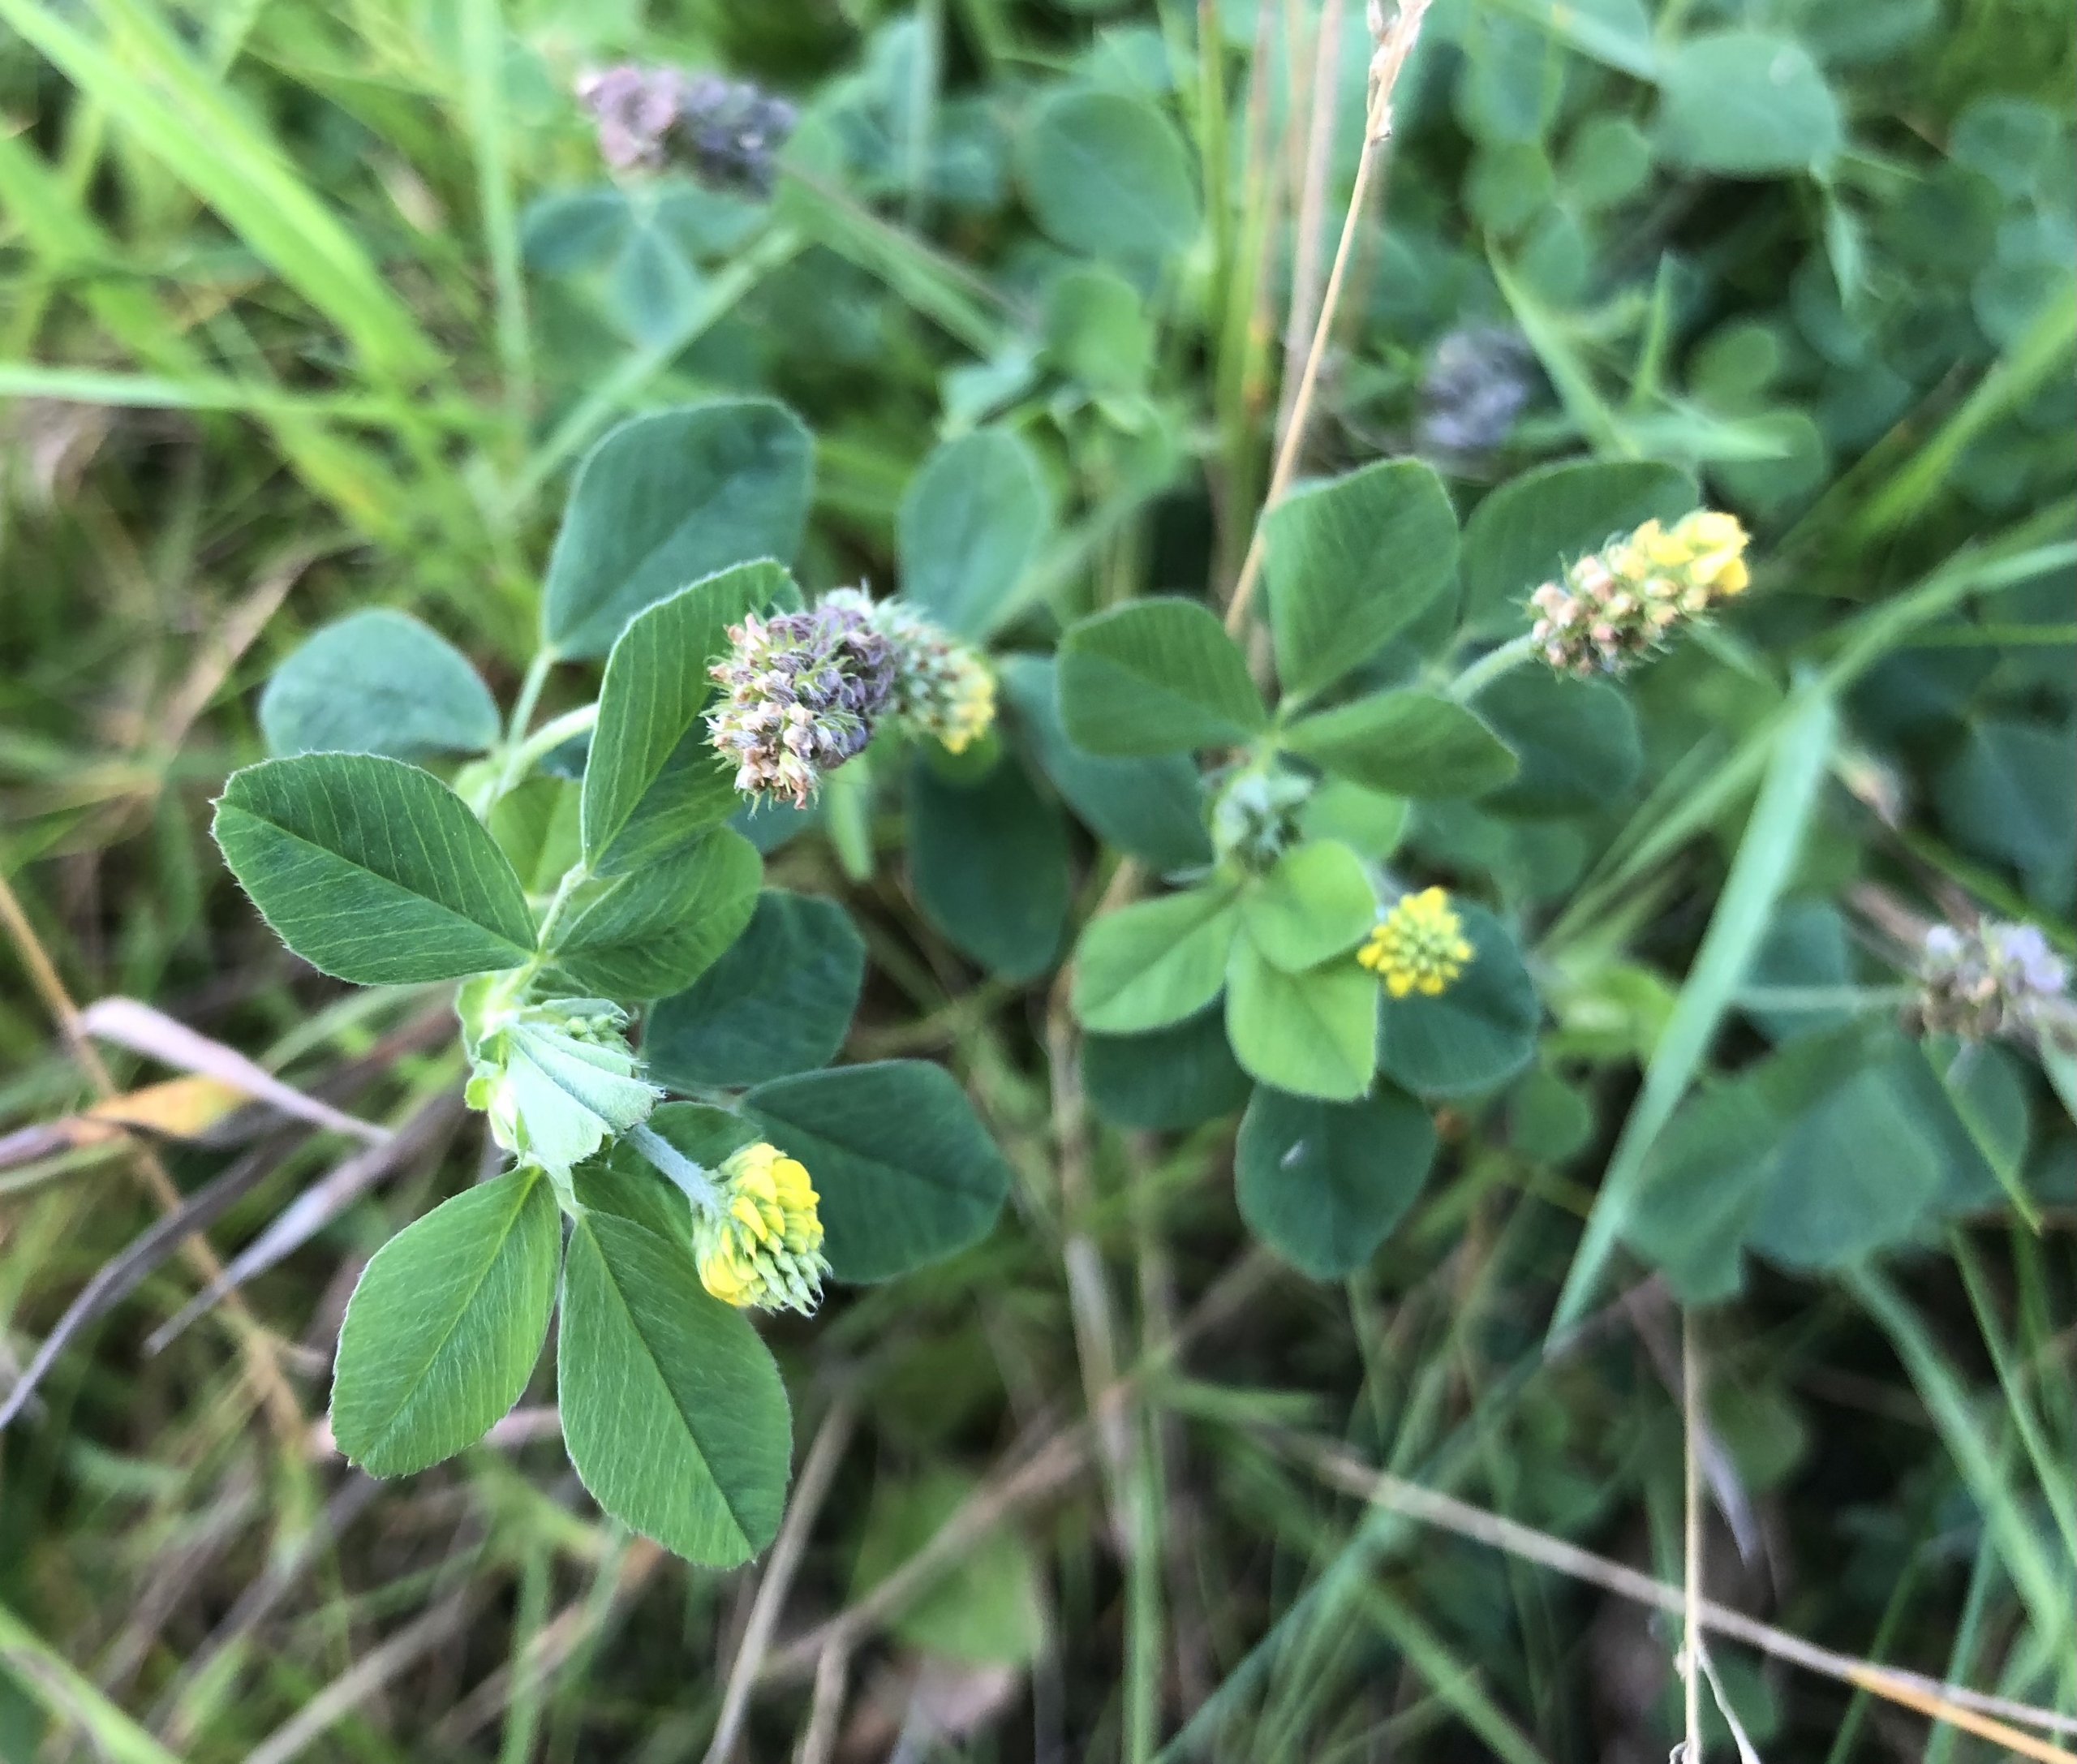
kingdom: Plantae
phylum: Tracheophyta
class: Magnoliopsida
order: Fabales
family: Fabaceae
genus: Medicago
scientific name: Medicago lupulina
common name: Humle-sneglebælg
